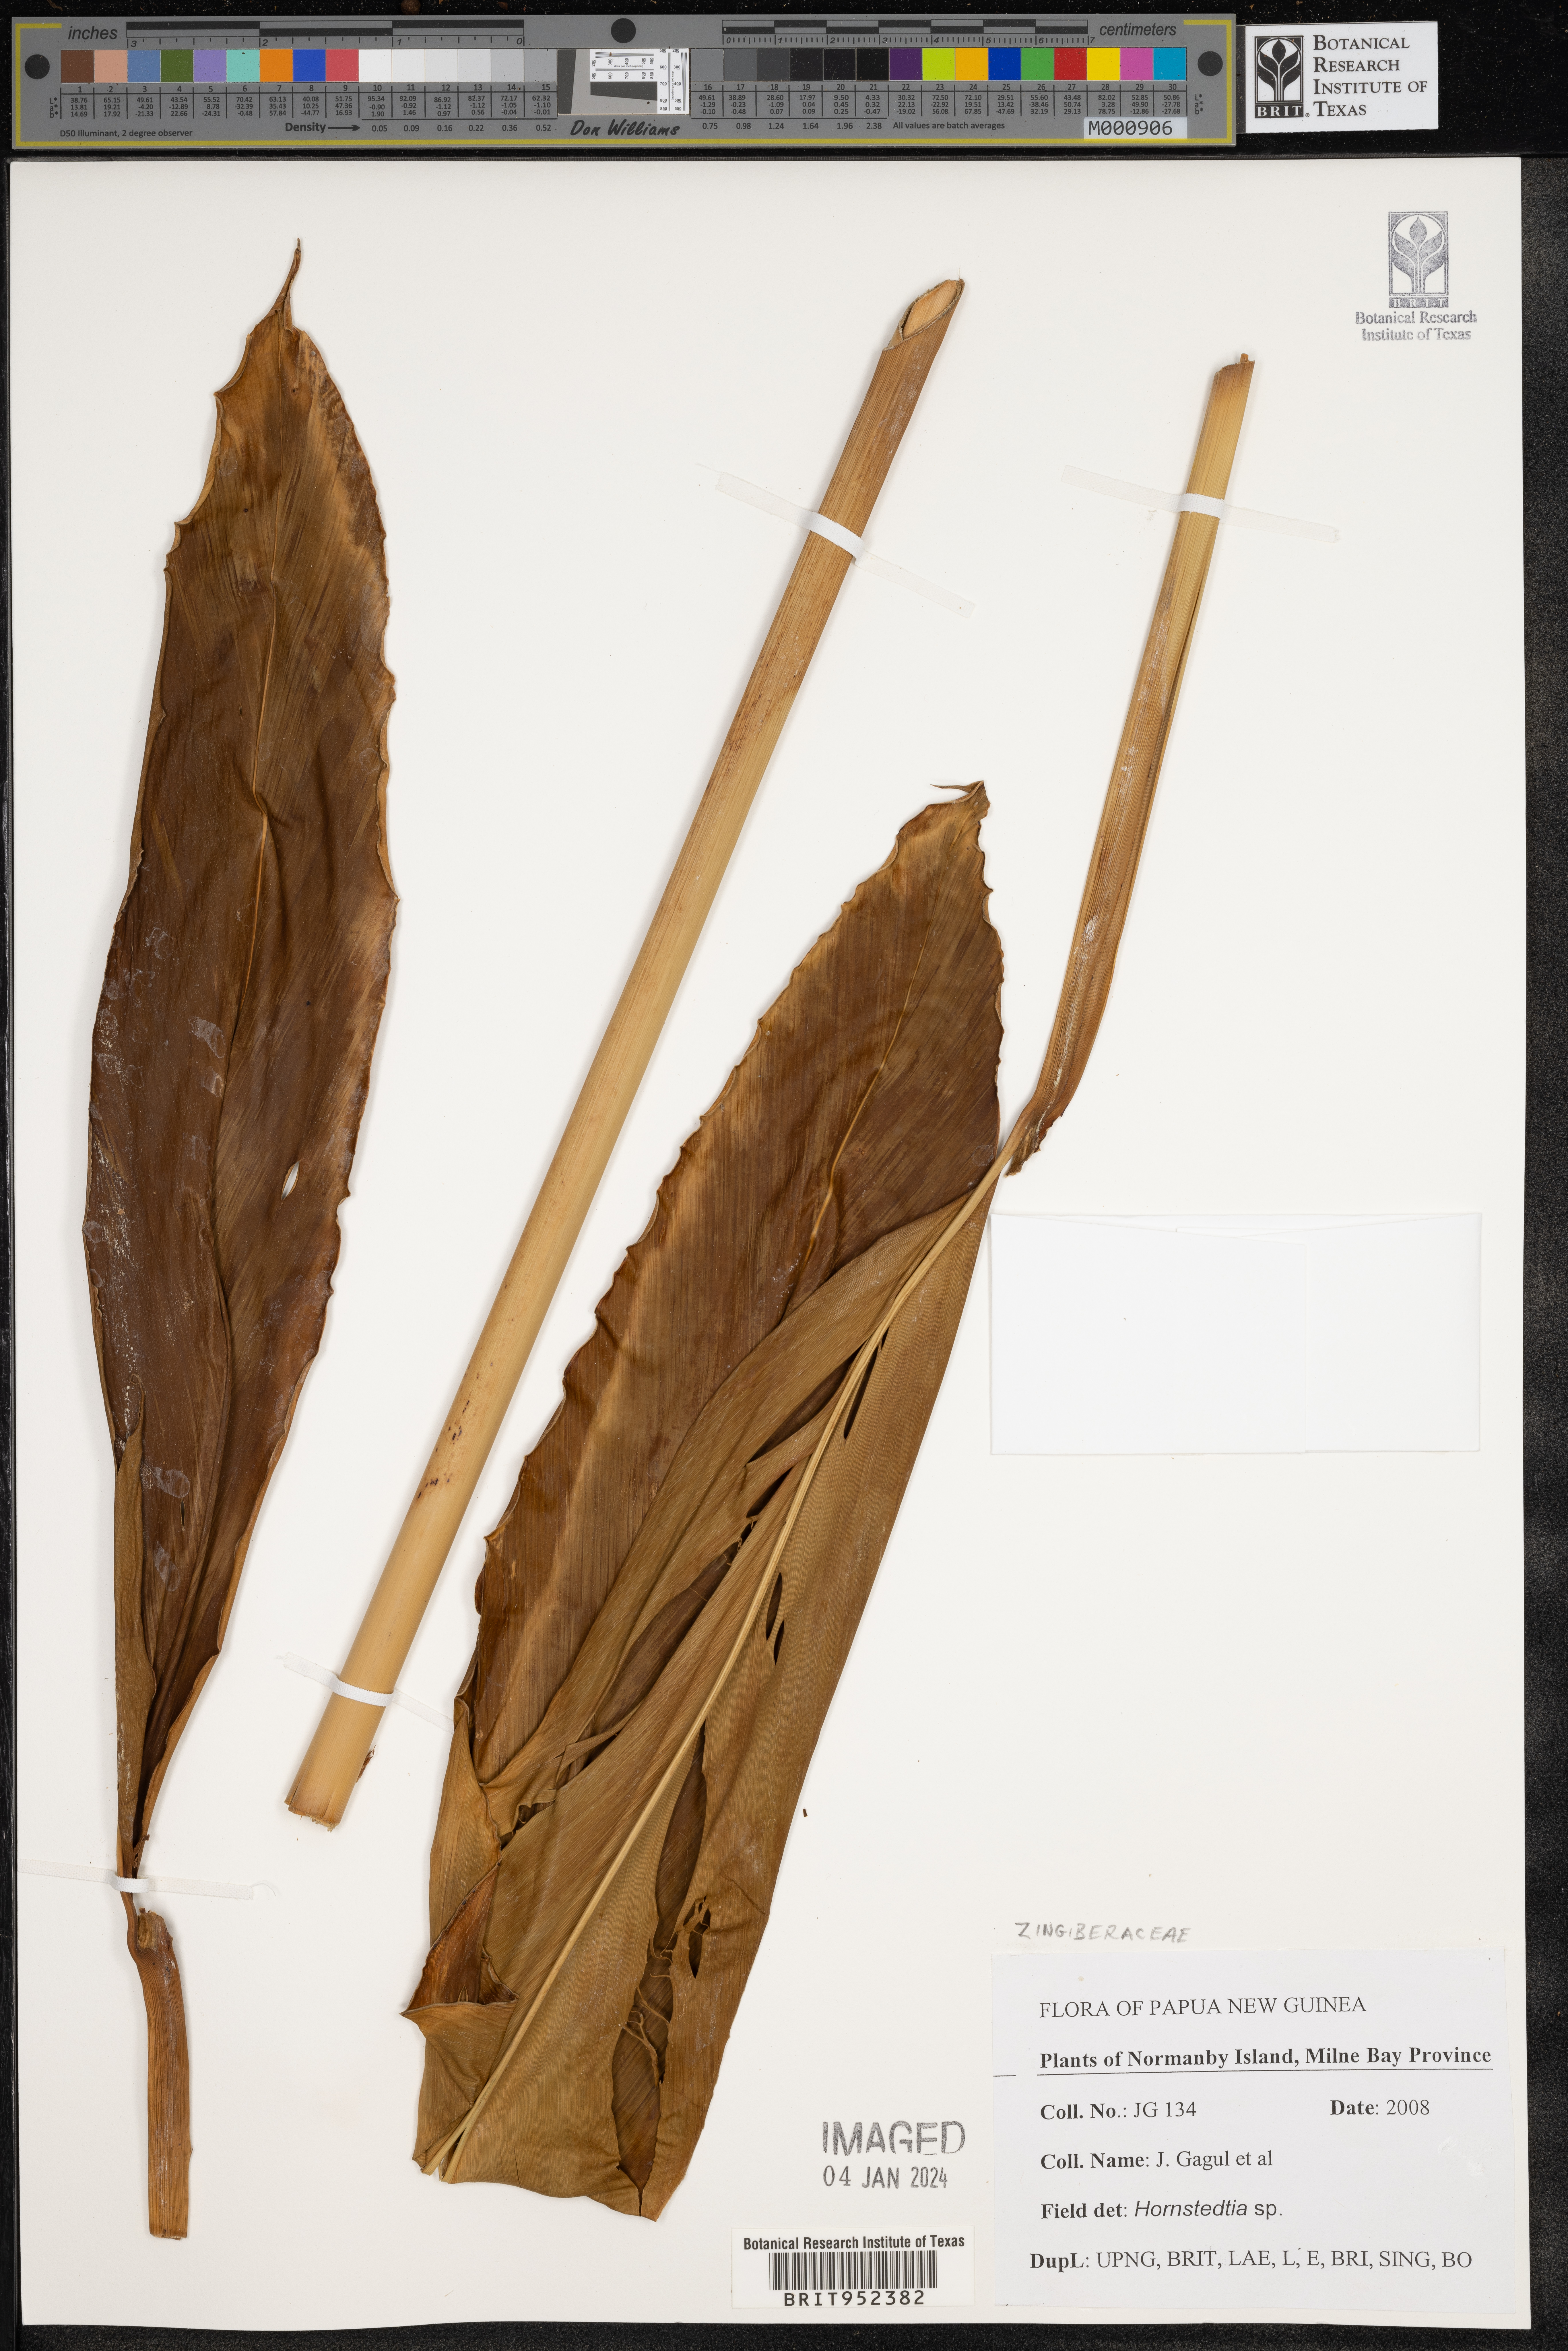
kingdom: Plantae
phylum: Tracheophyta
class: Liliopsida
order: Zingiberales
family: Zingiberaceae
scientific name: Zingiberaceae
